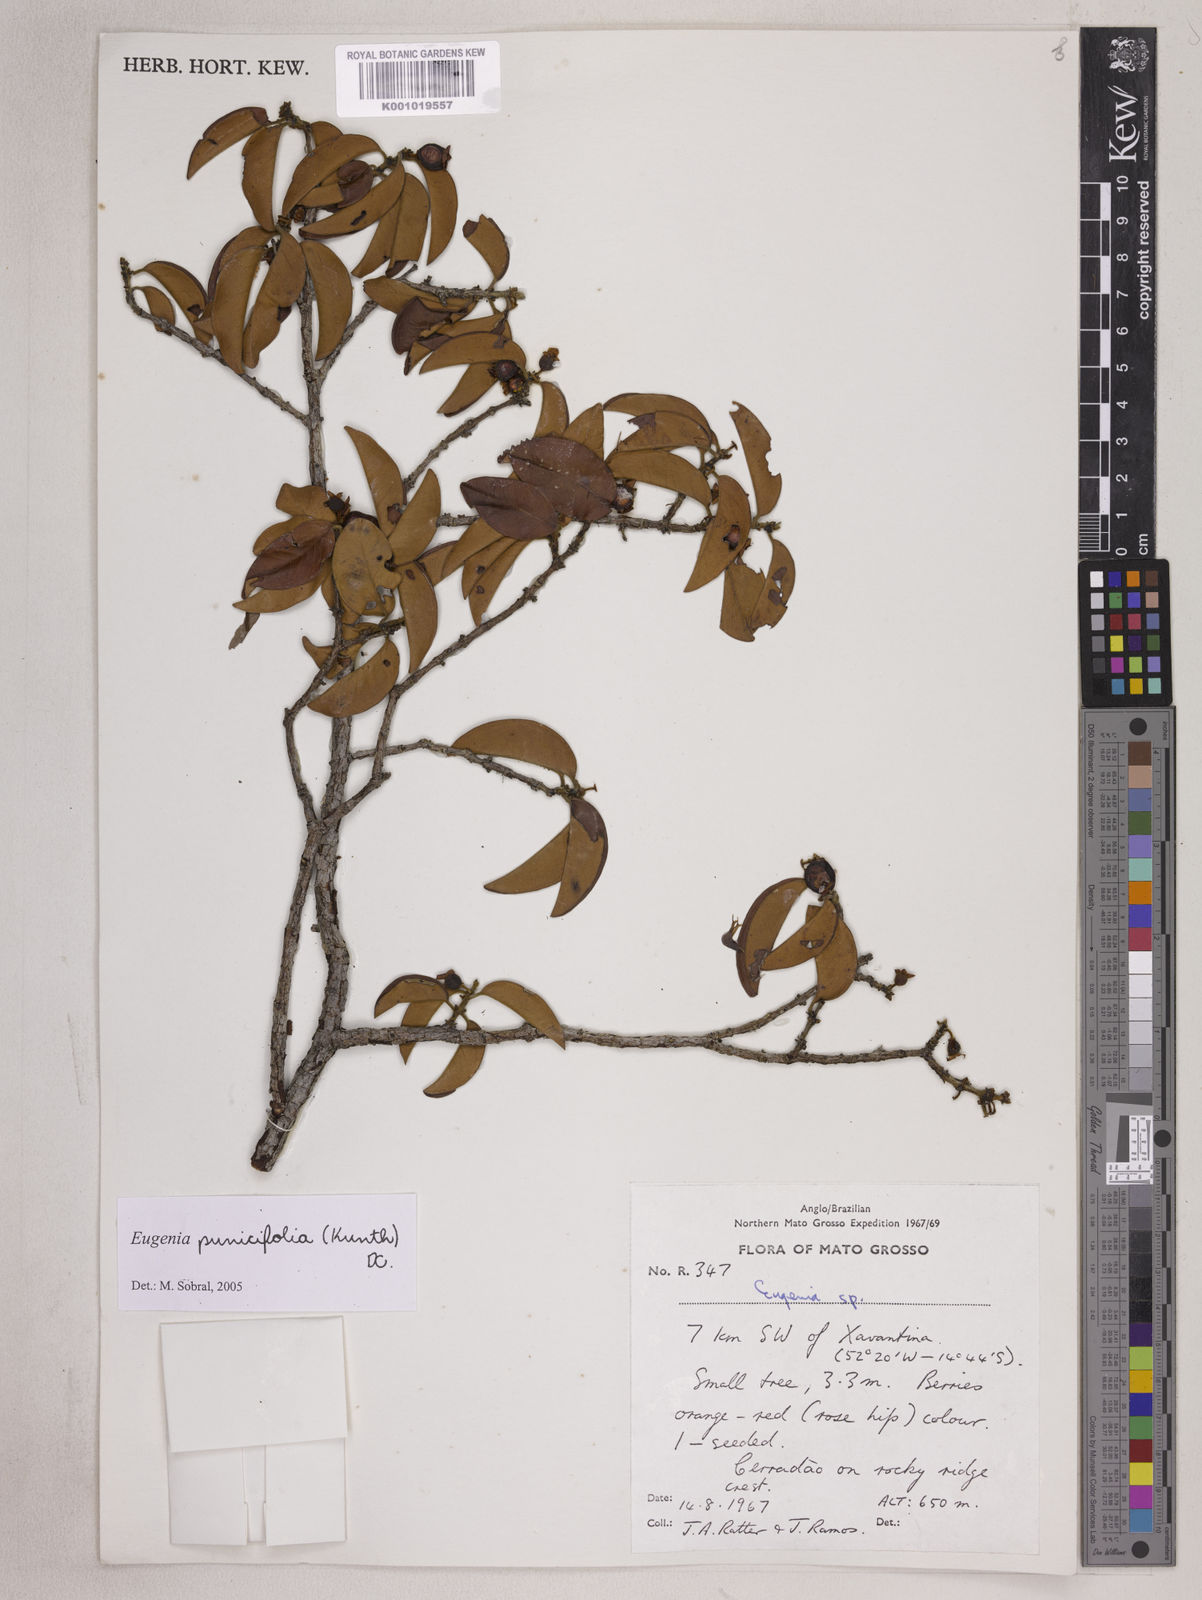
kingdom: Plantae
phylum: Tracheophyta
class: Magnoliopsida
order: Myrtales
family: Myrtaceae
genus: Eugenia
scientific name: Eugenia punicifolia
